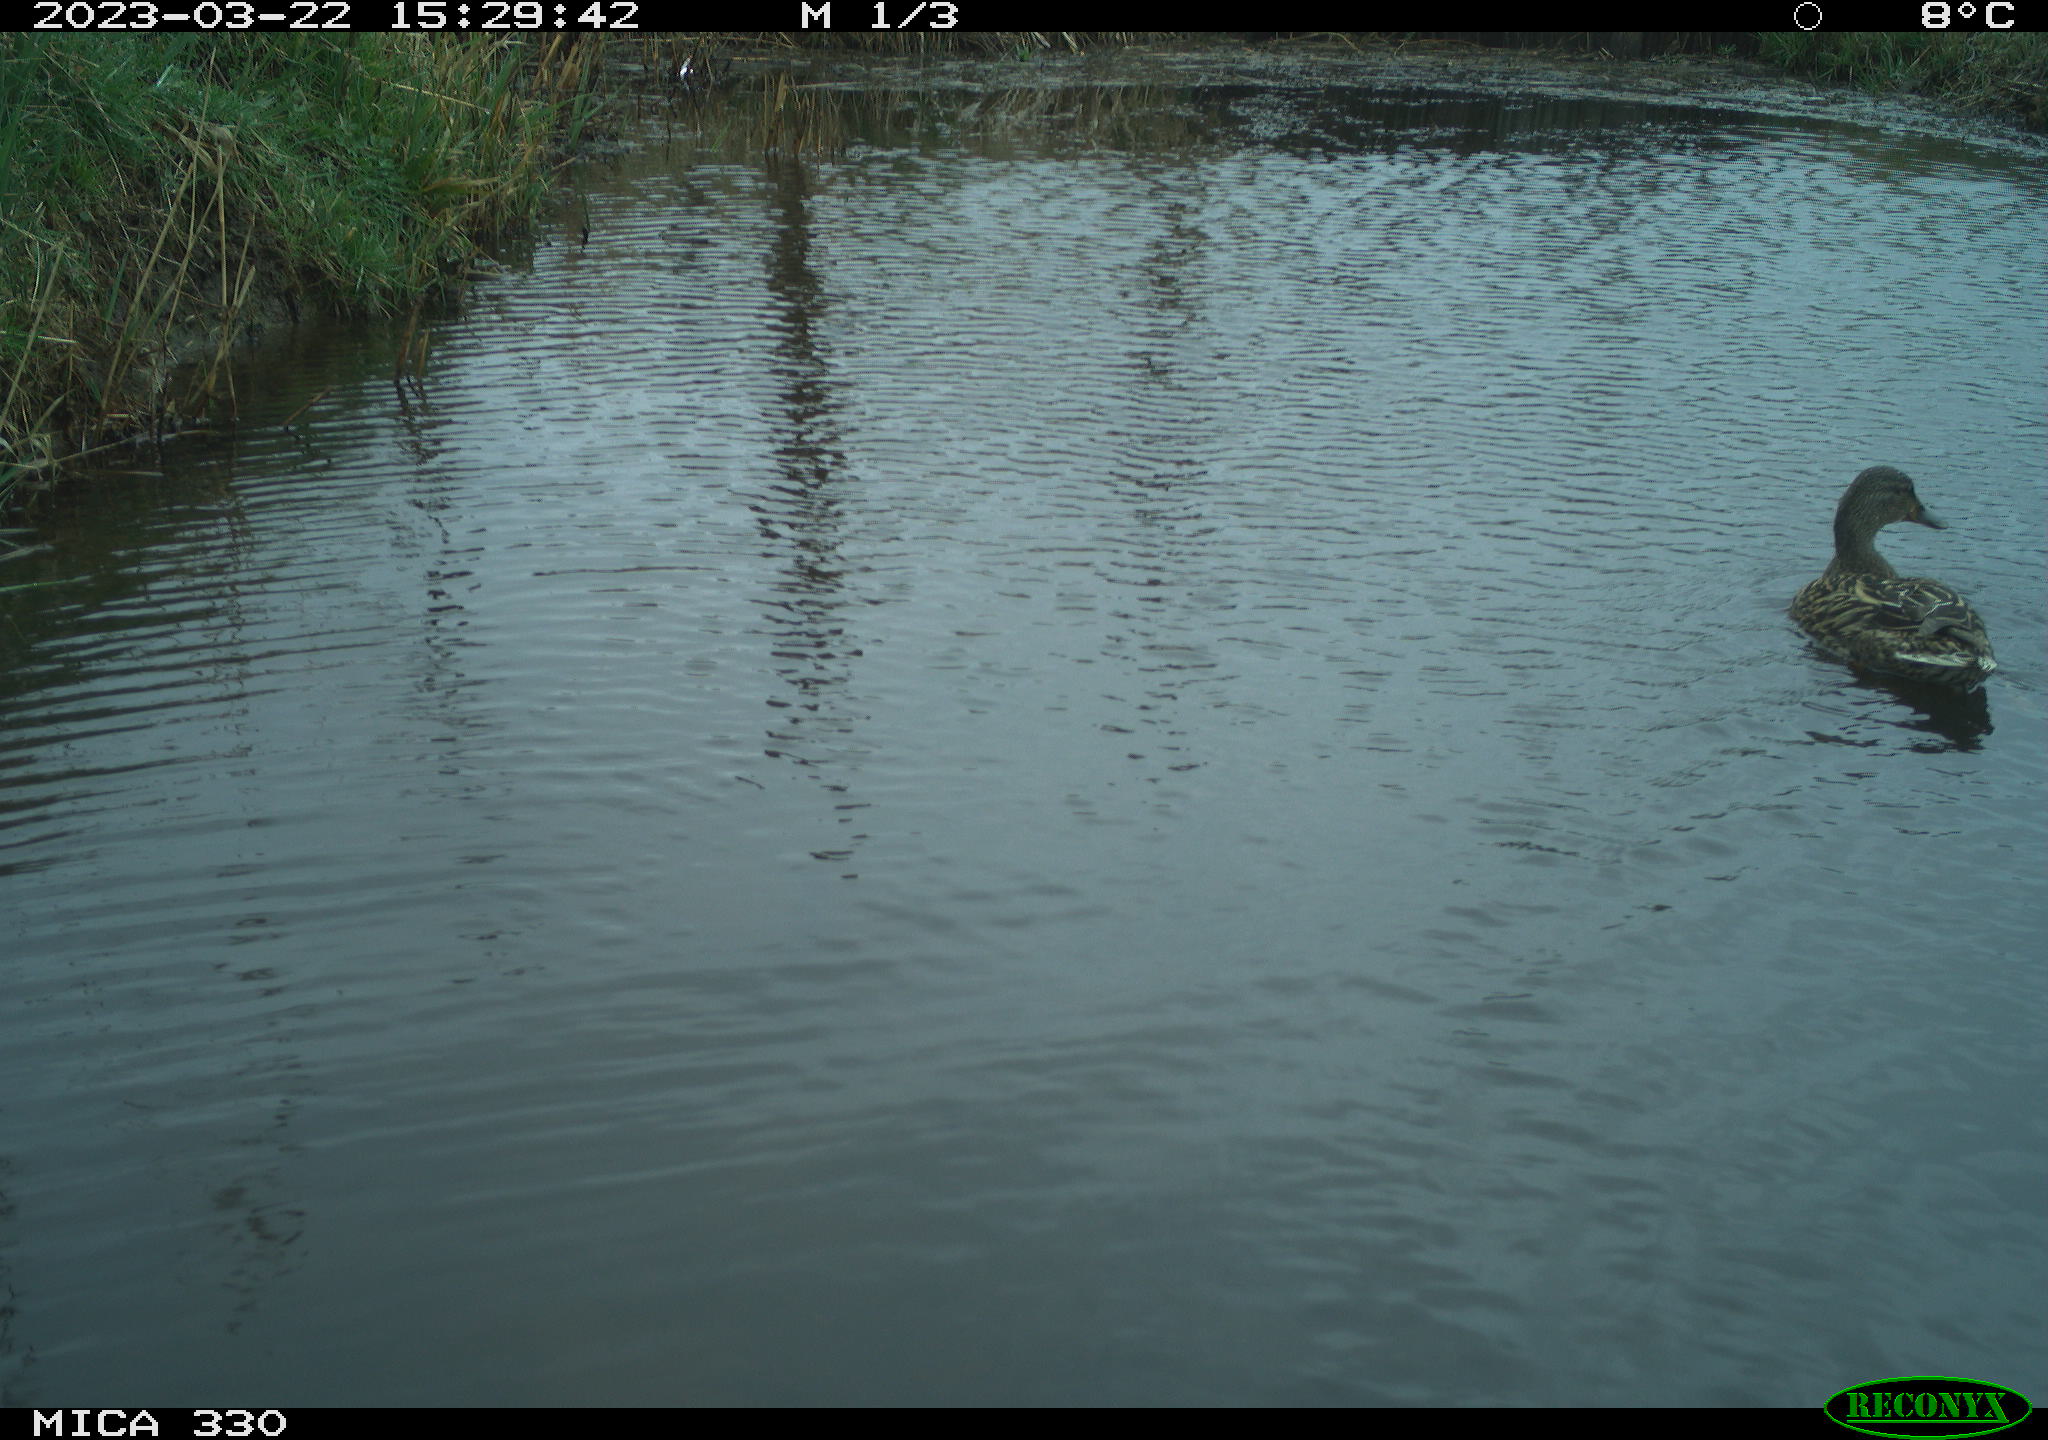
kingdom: Animalia
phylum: Chordata
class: Aves
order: Anseriformes
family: Anatidae
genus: Anas
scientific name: Anas
